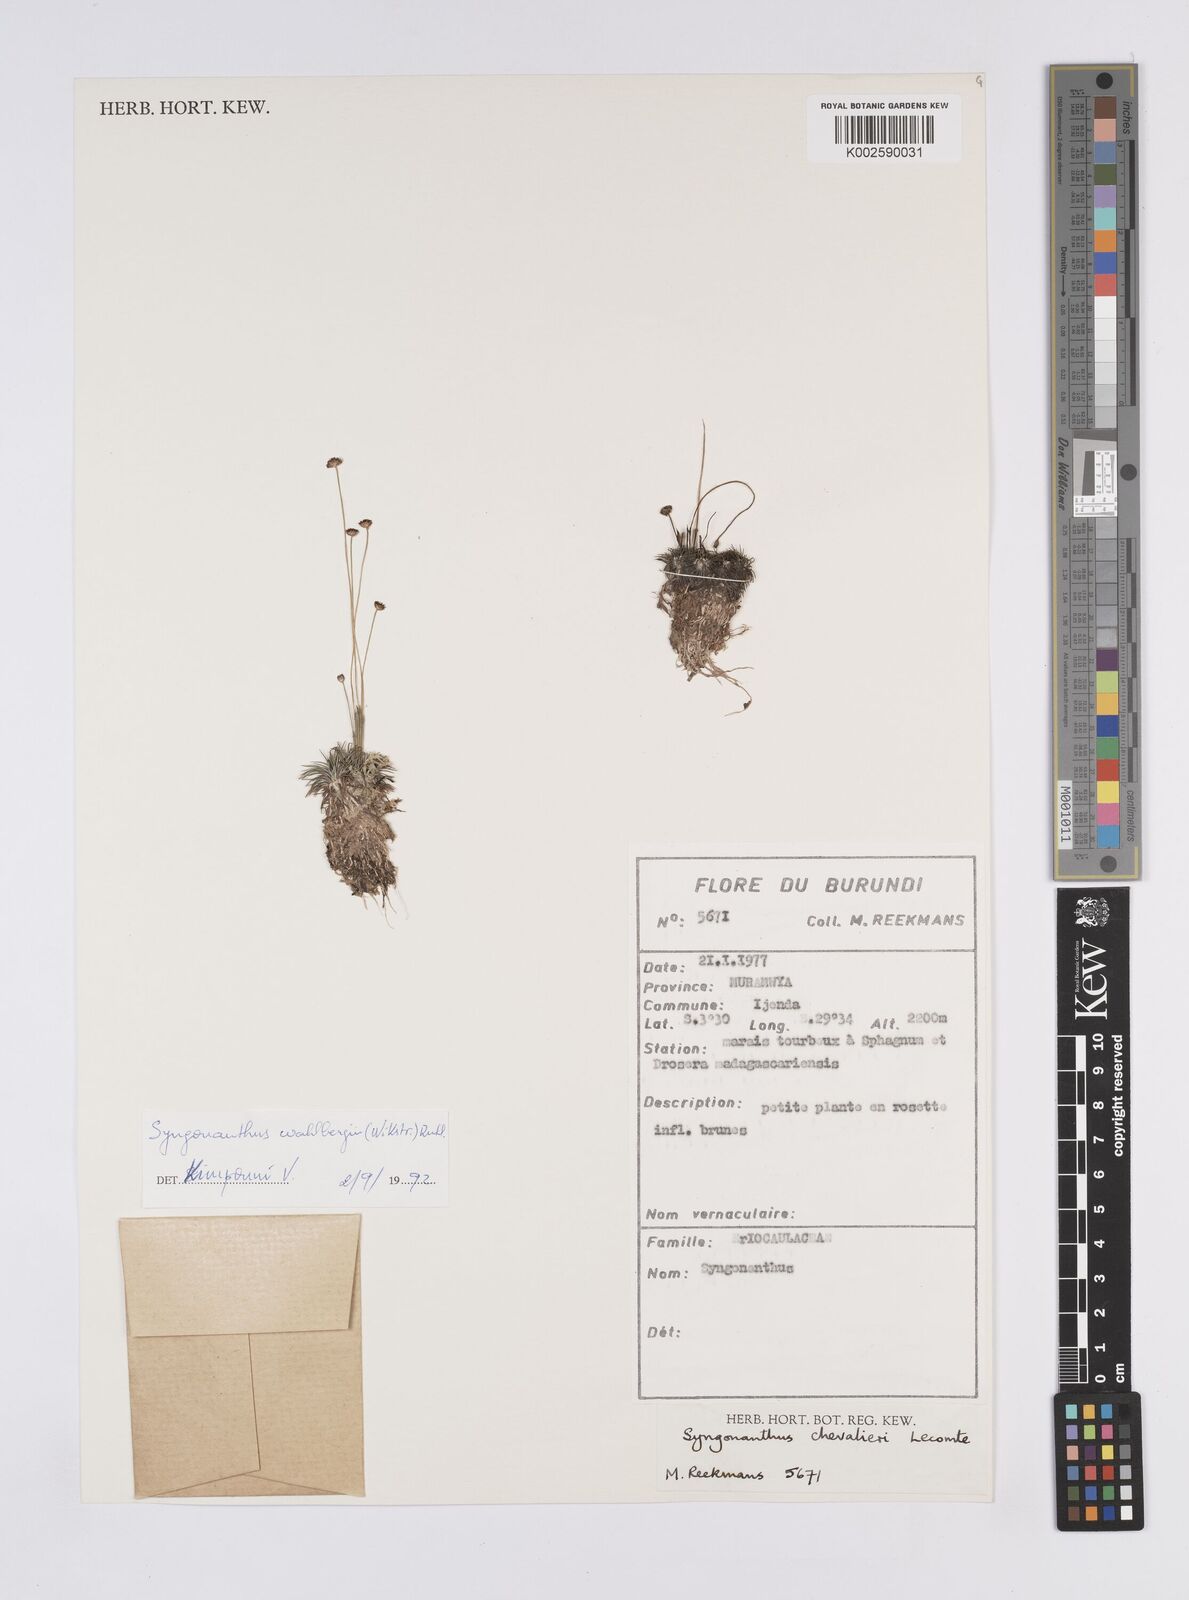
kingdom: Plantae
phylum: Tracheophyta
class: Liliopsida
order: Poales
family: Eriocaulaceae
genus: Syngonanthus
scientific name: Syngonanthus wahlbergii
